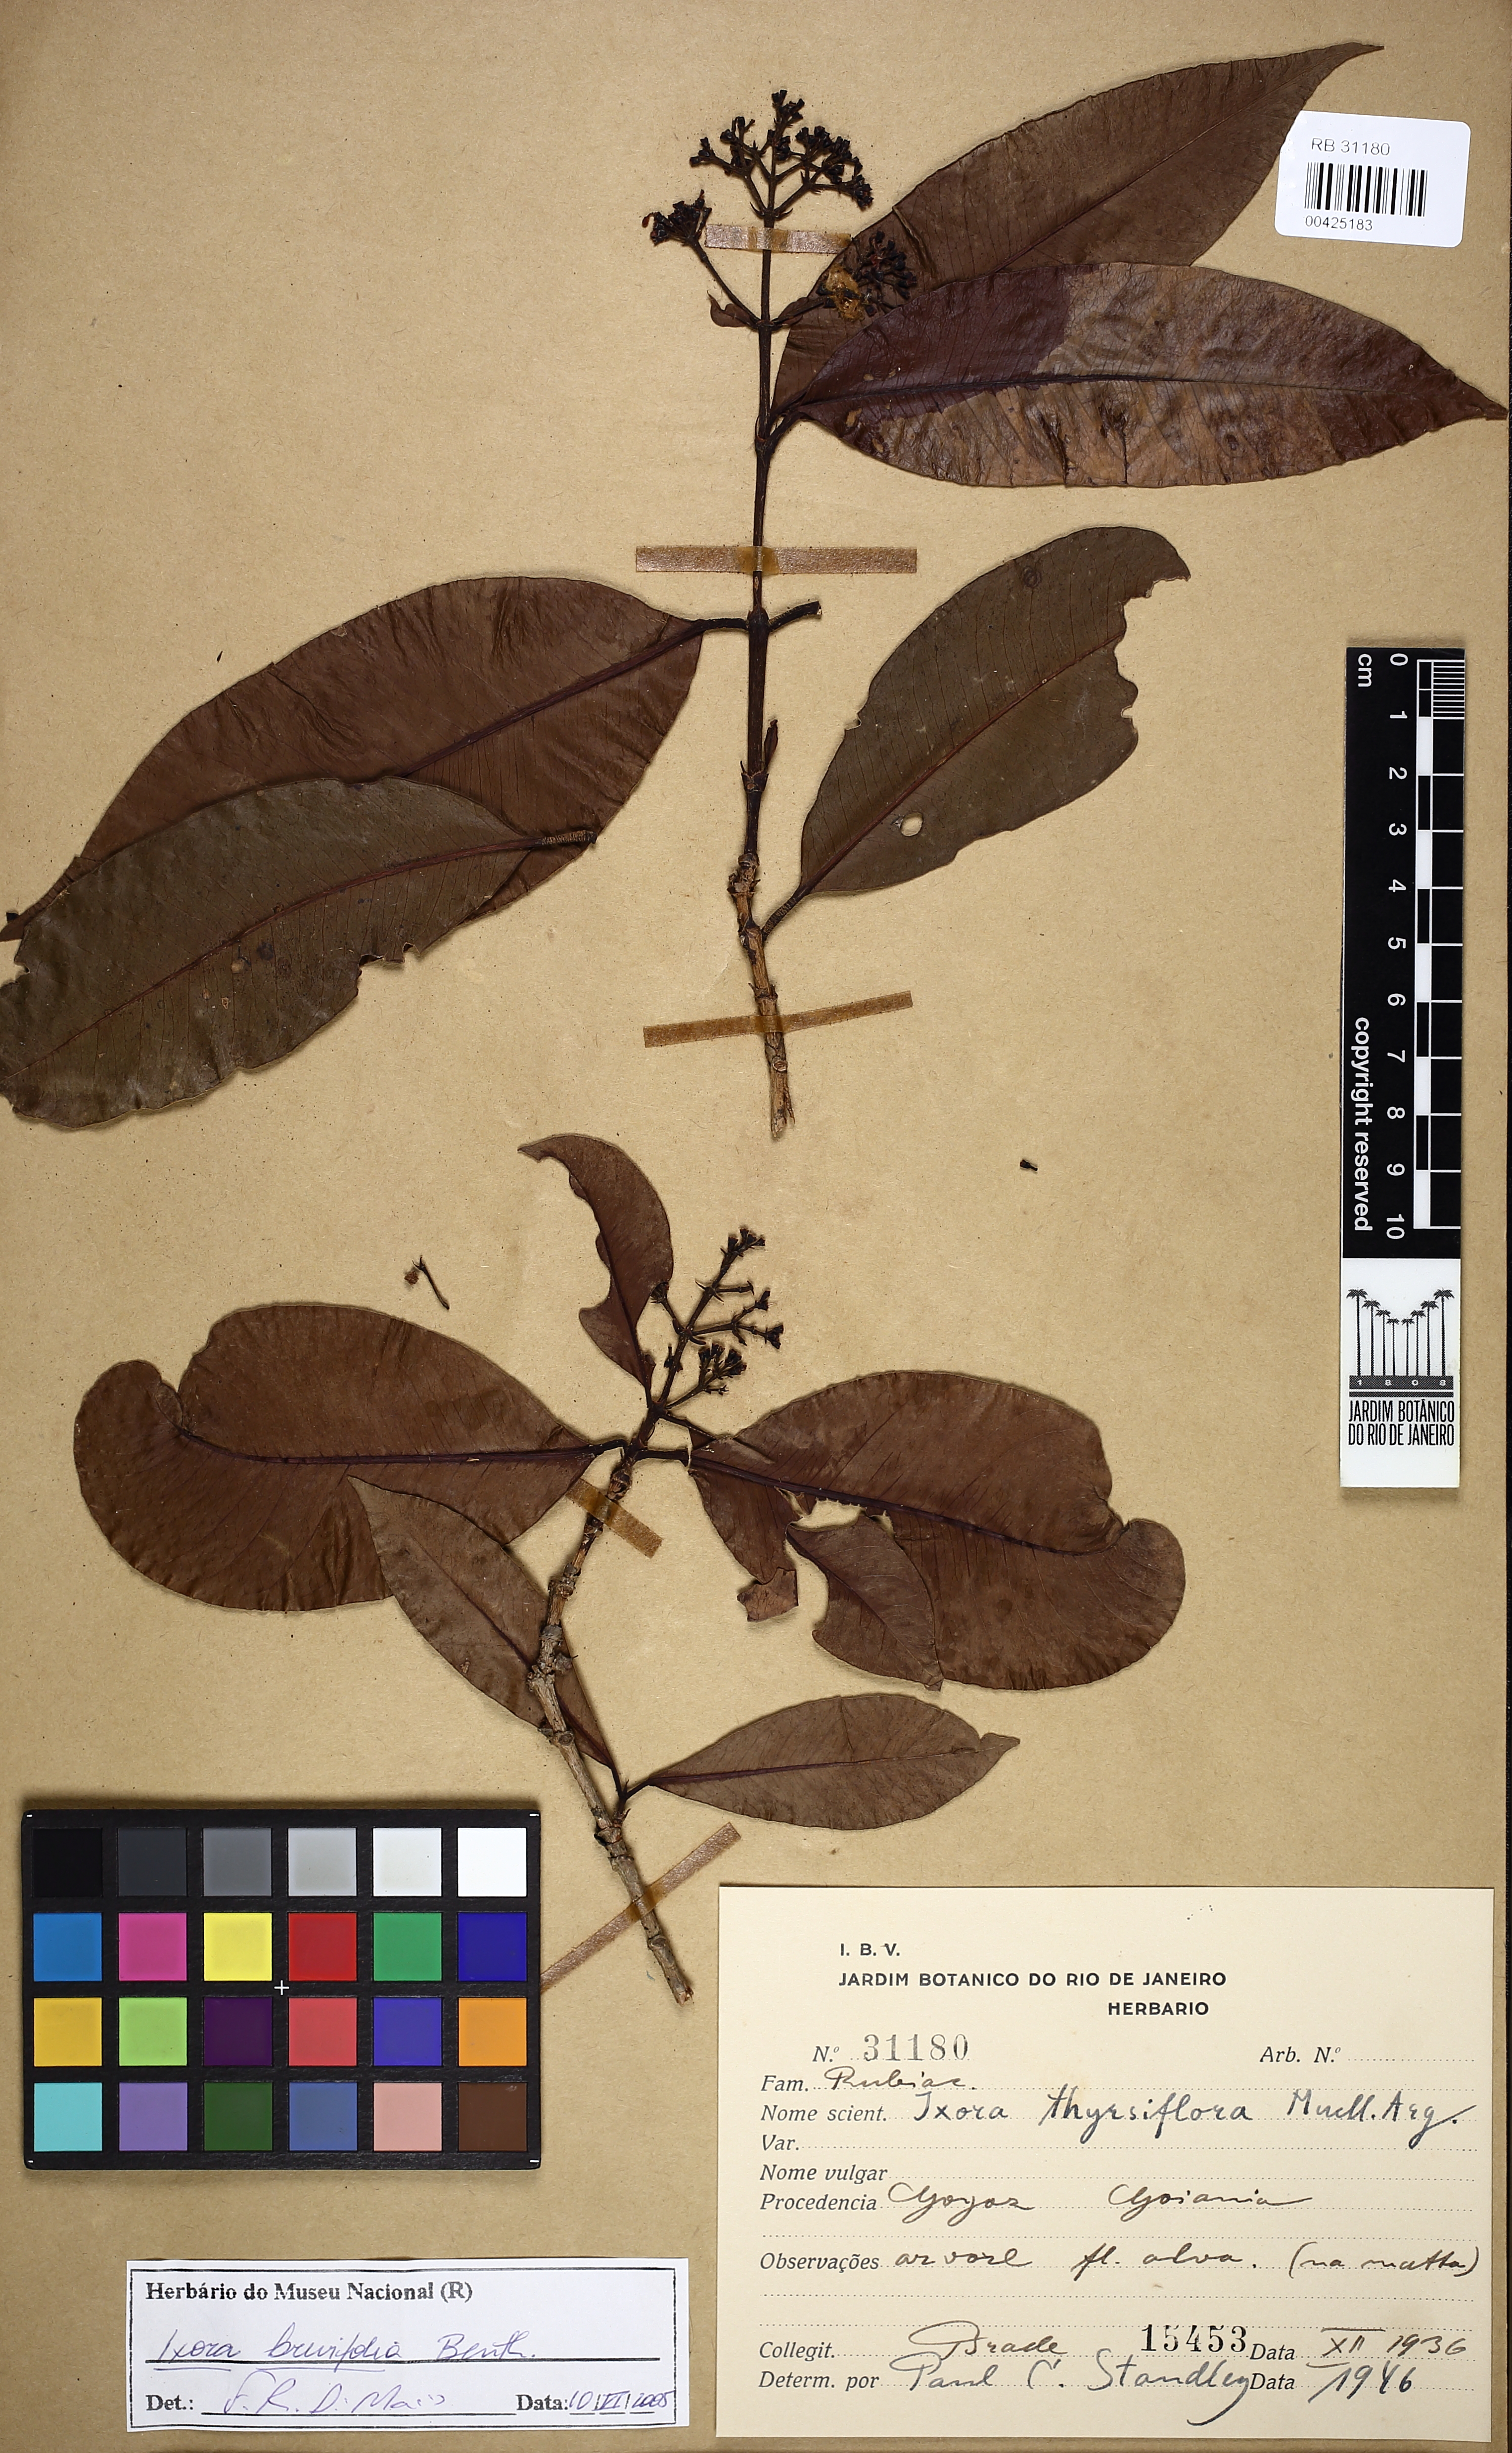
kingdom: Plantae
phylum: Tracheophyta
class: Magnoliopsida
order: Gentianales
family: Rubiaceae
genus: Ixora
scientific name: Ixora brevifolia
